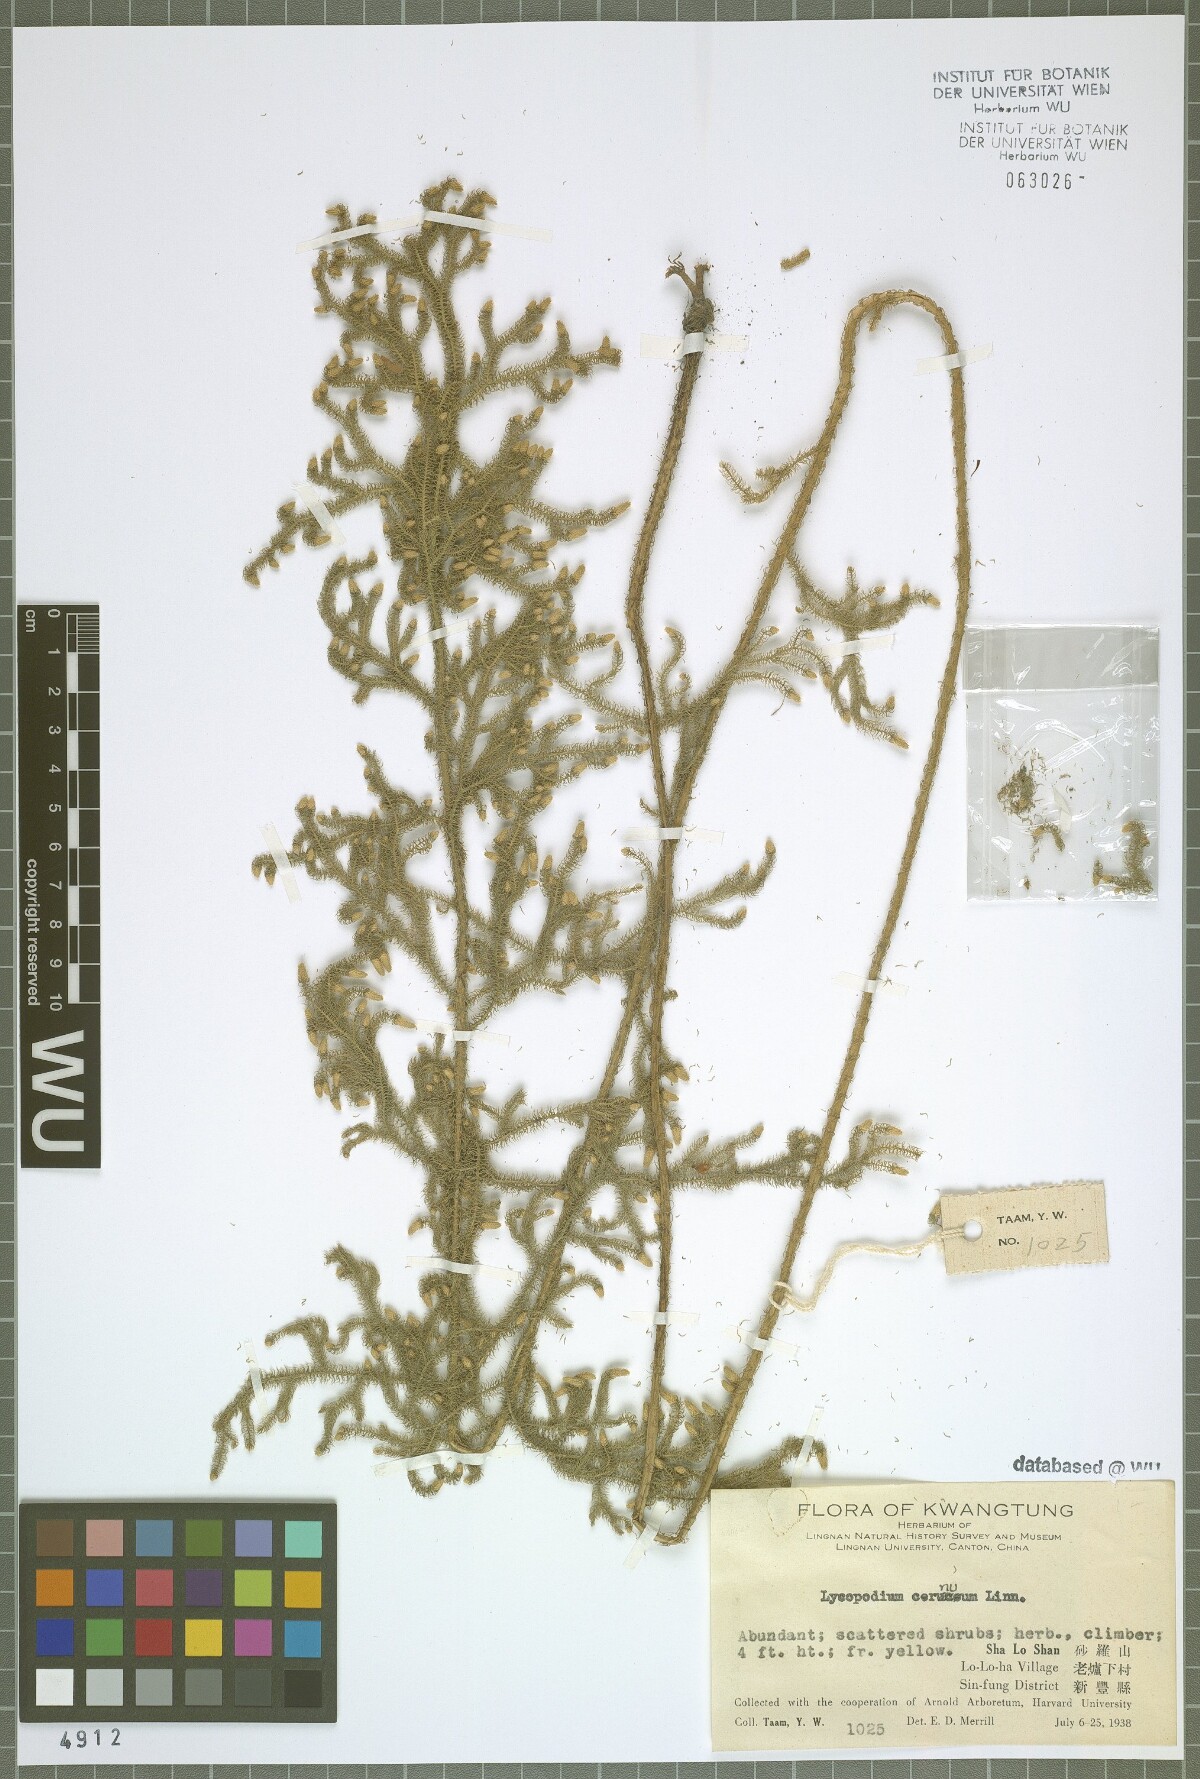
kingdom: Plantae
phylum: Tracheophyta
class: Lycopodiopsida
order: Lycopodiales
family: Lycopodiaceae
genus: Palhinhaea
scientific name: Palhinhaea cernua
